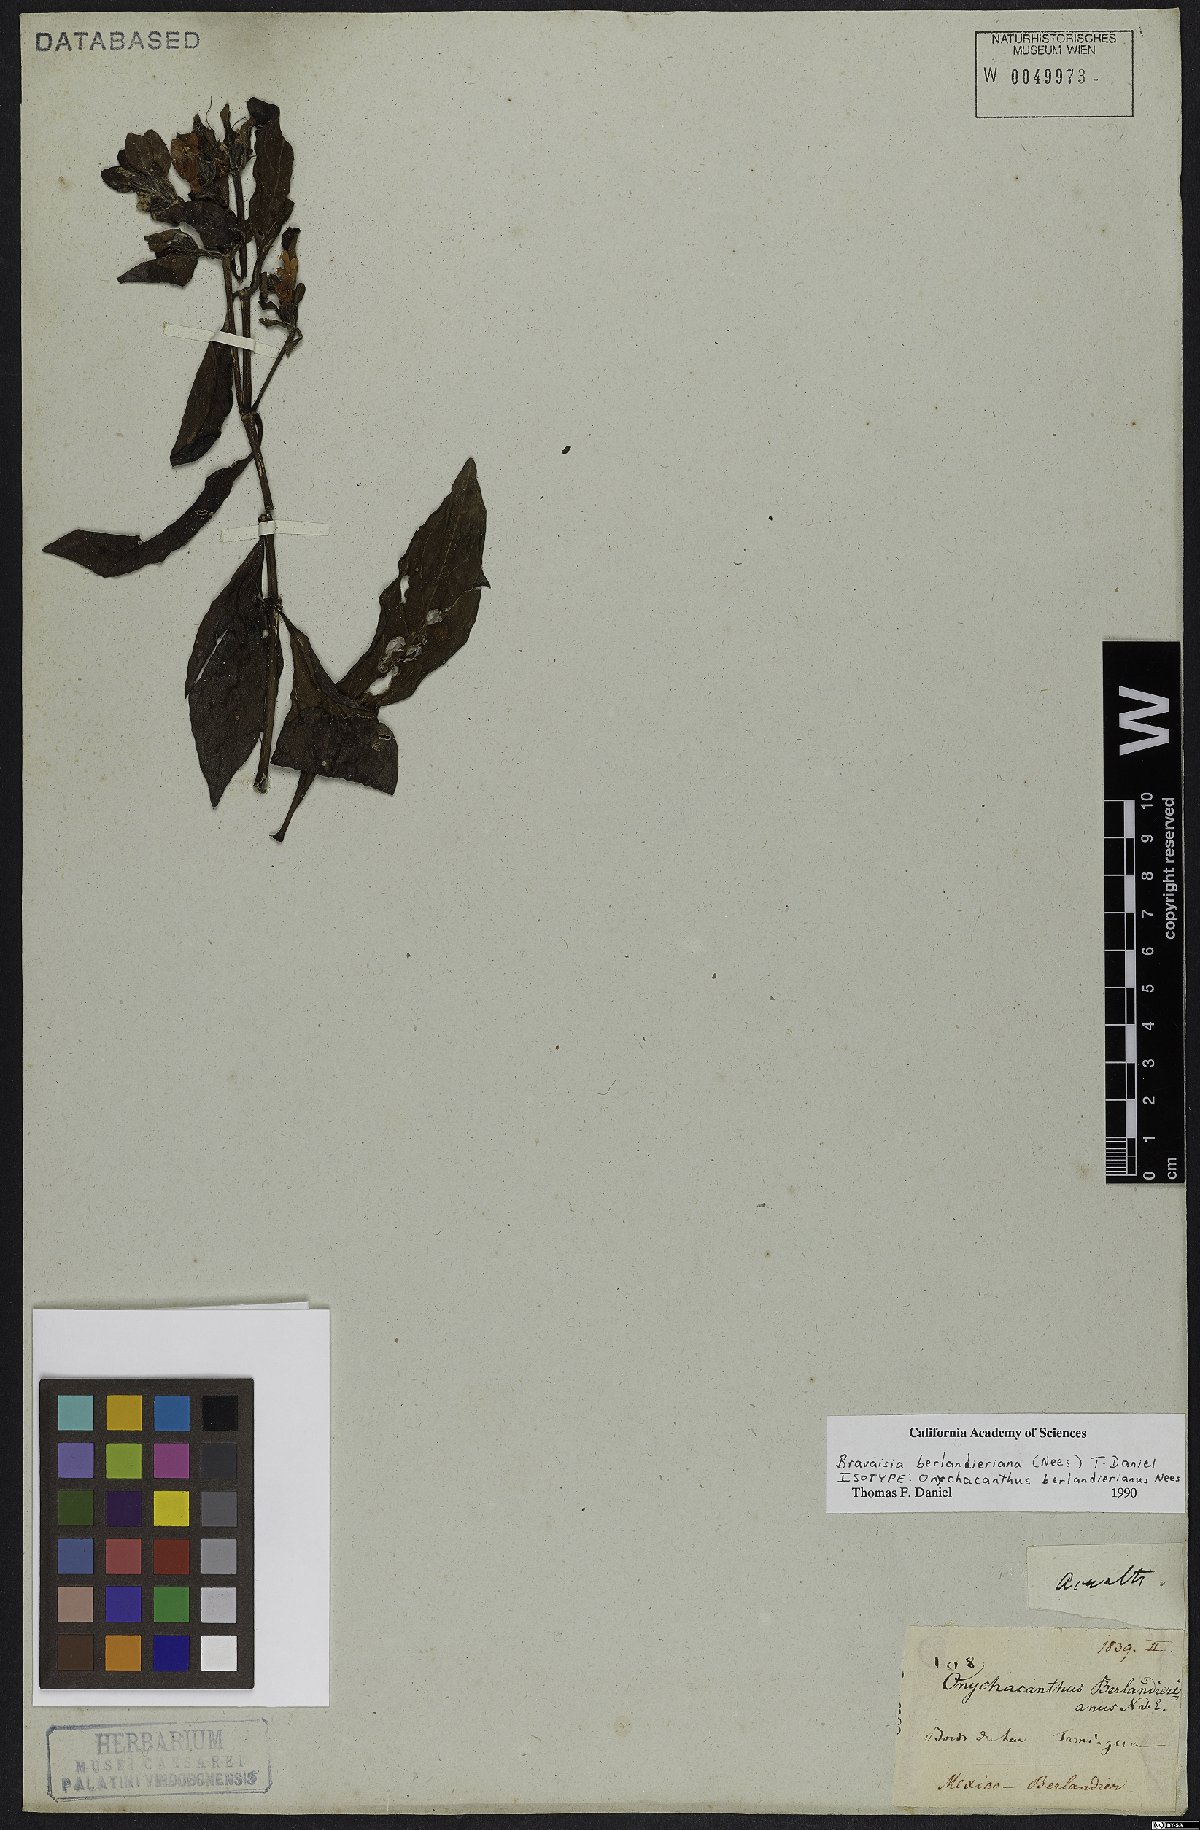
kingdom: Plantae
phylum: Tracheophyta
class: Magnoliopsida
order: Lamiales
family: Acanthaceae
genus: Bravaisia
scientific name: Bravaisia berlandieriana
